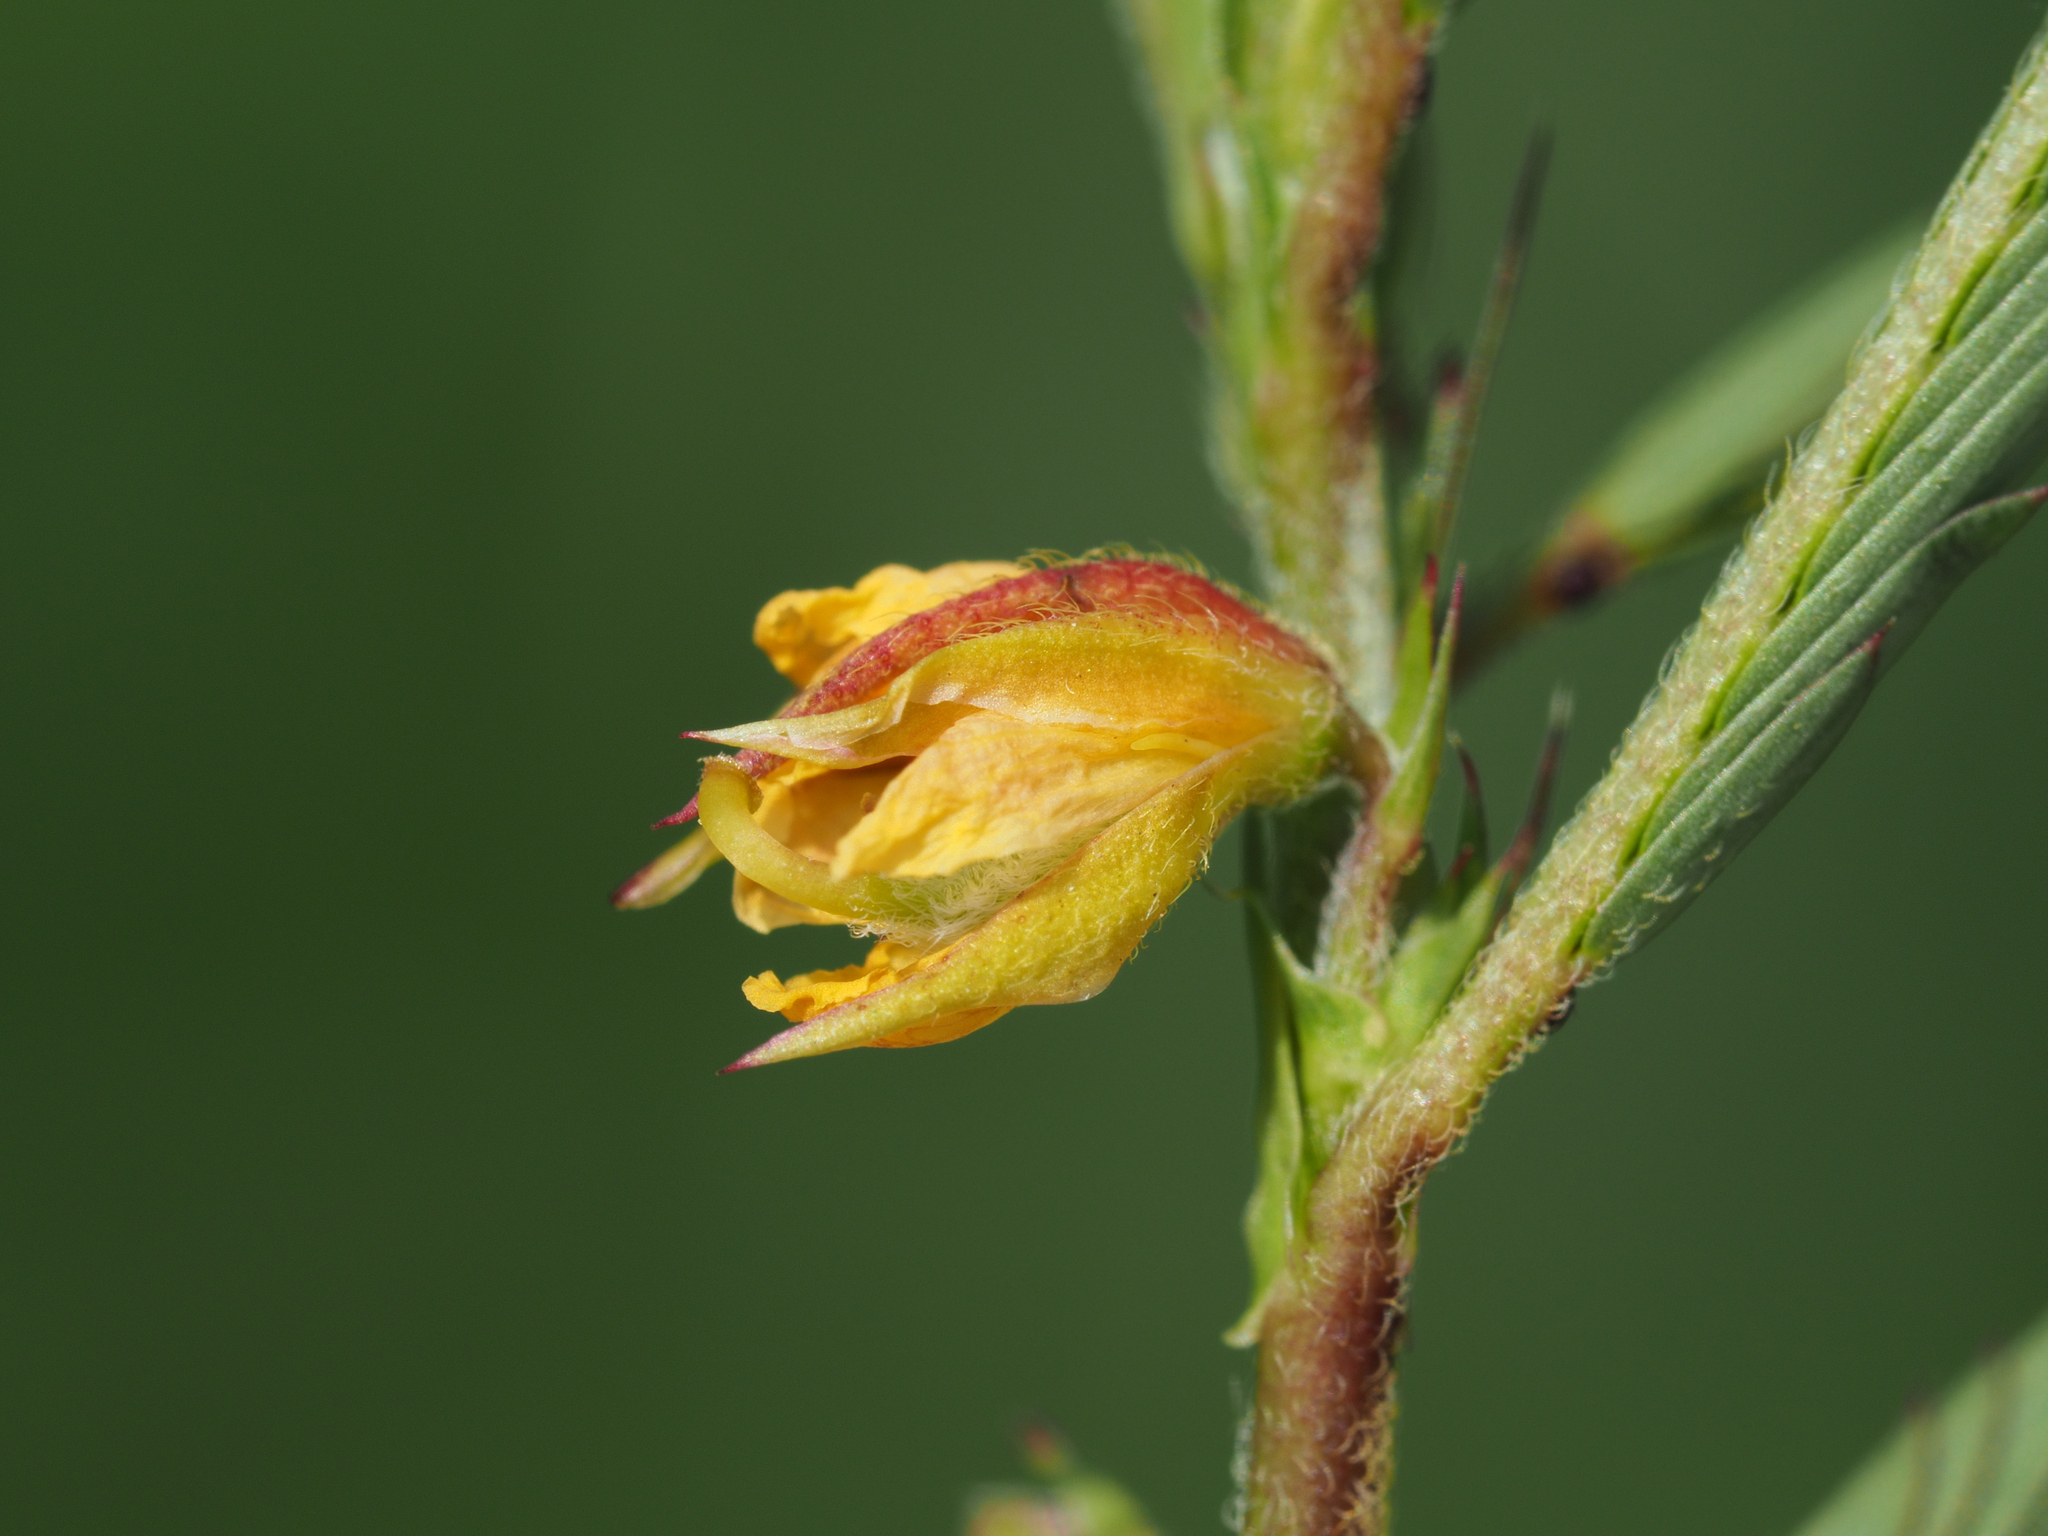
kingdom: Plantae
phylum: Tracheophyta
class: Magnoliopsida
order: Fabales
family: Fabaceae
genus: Chamaecrista
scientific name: Chamaecrista nomame
